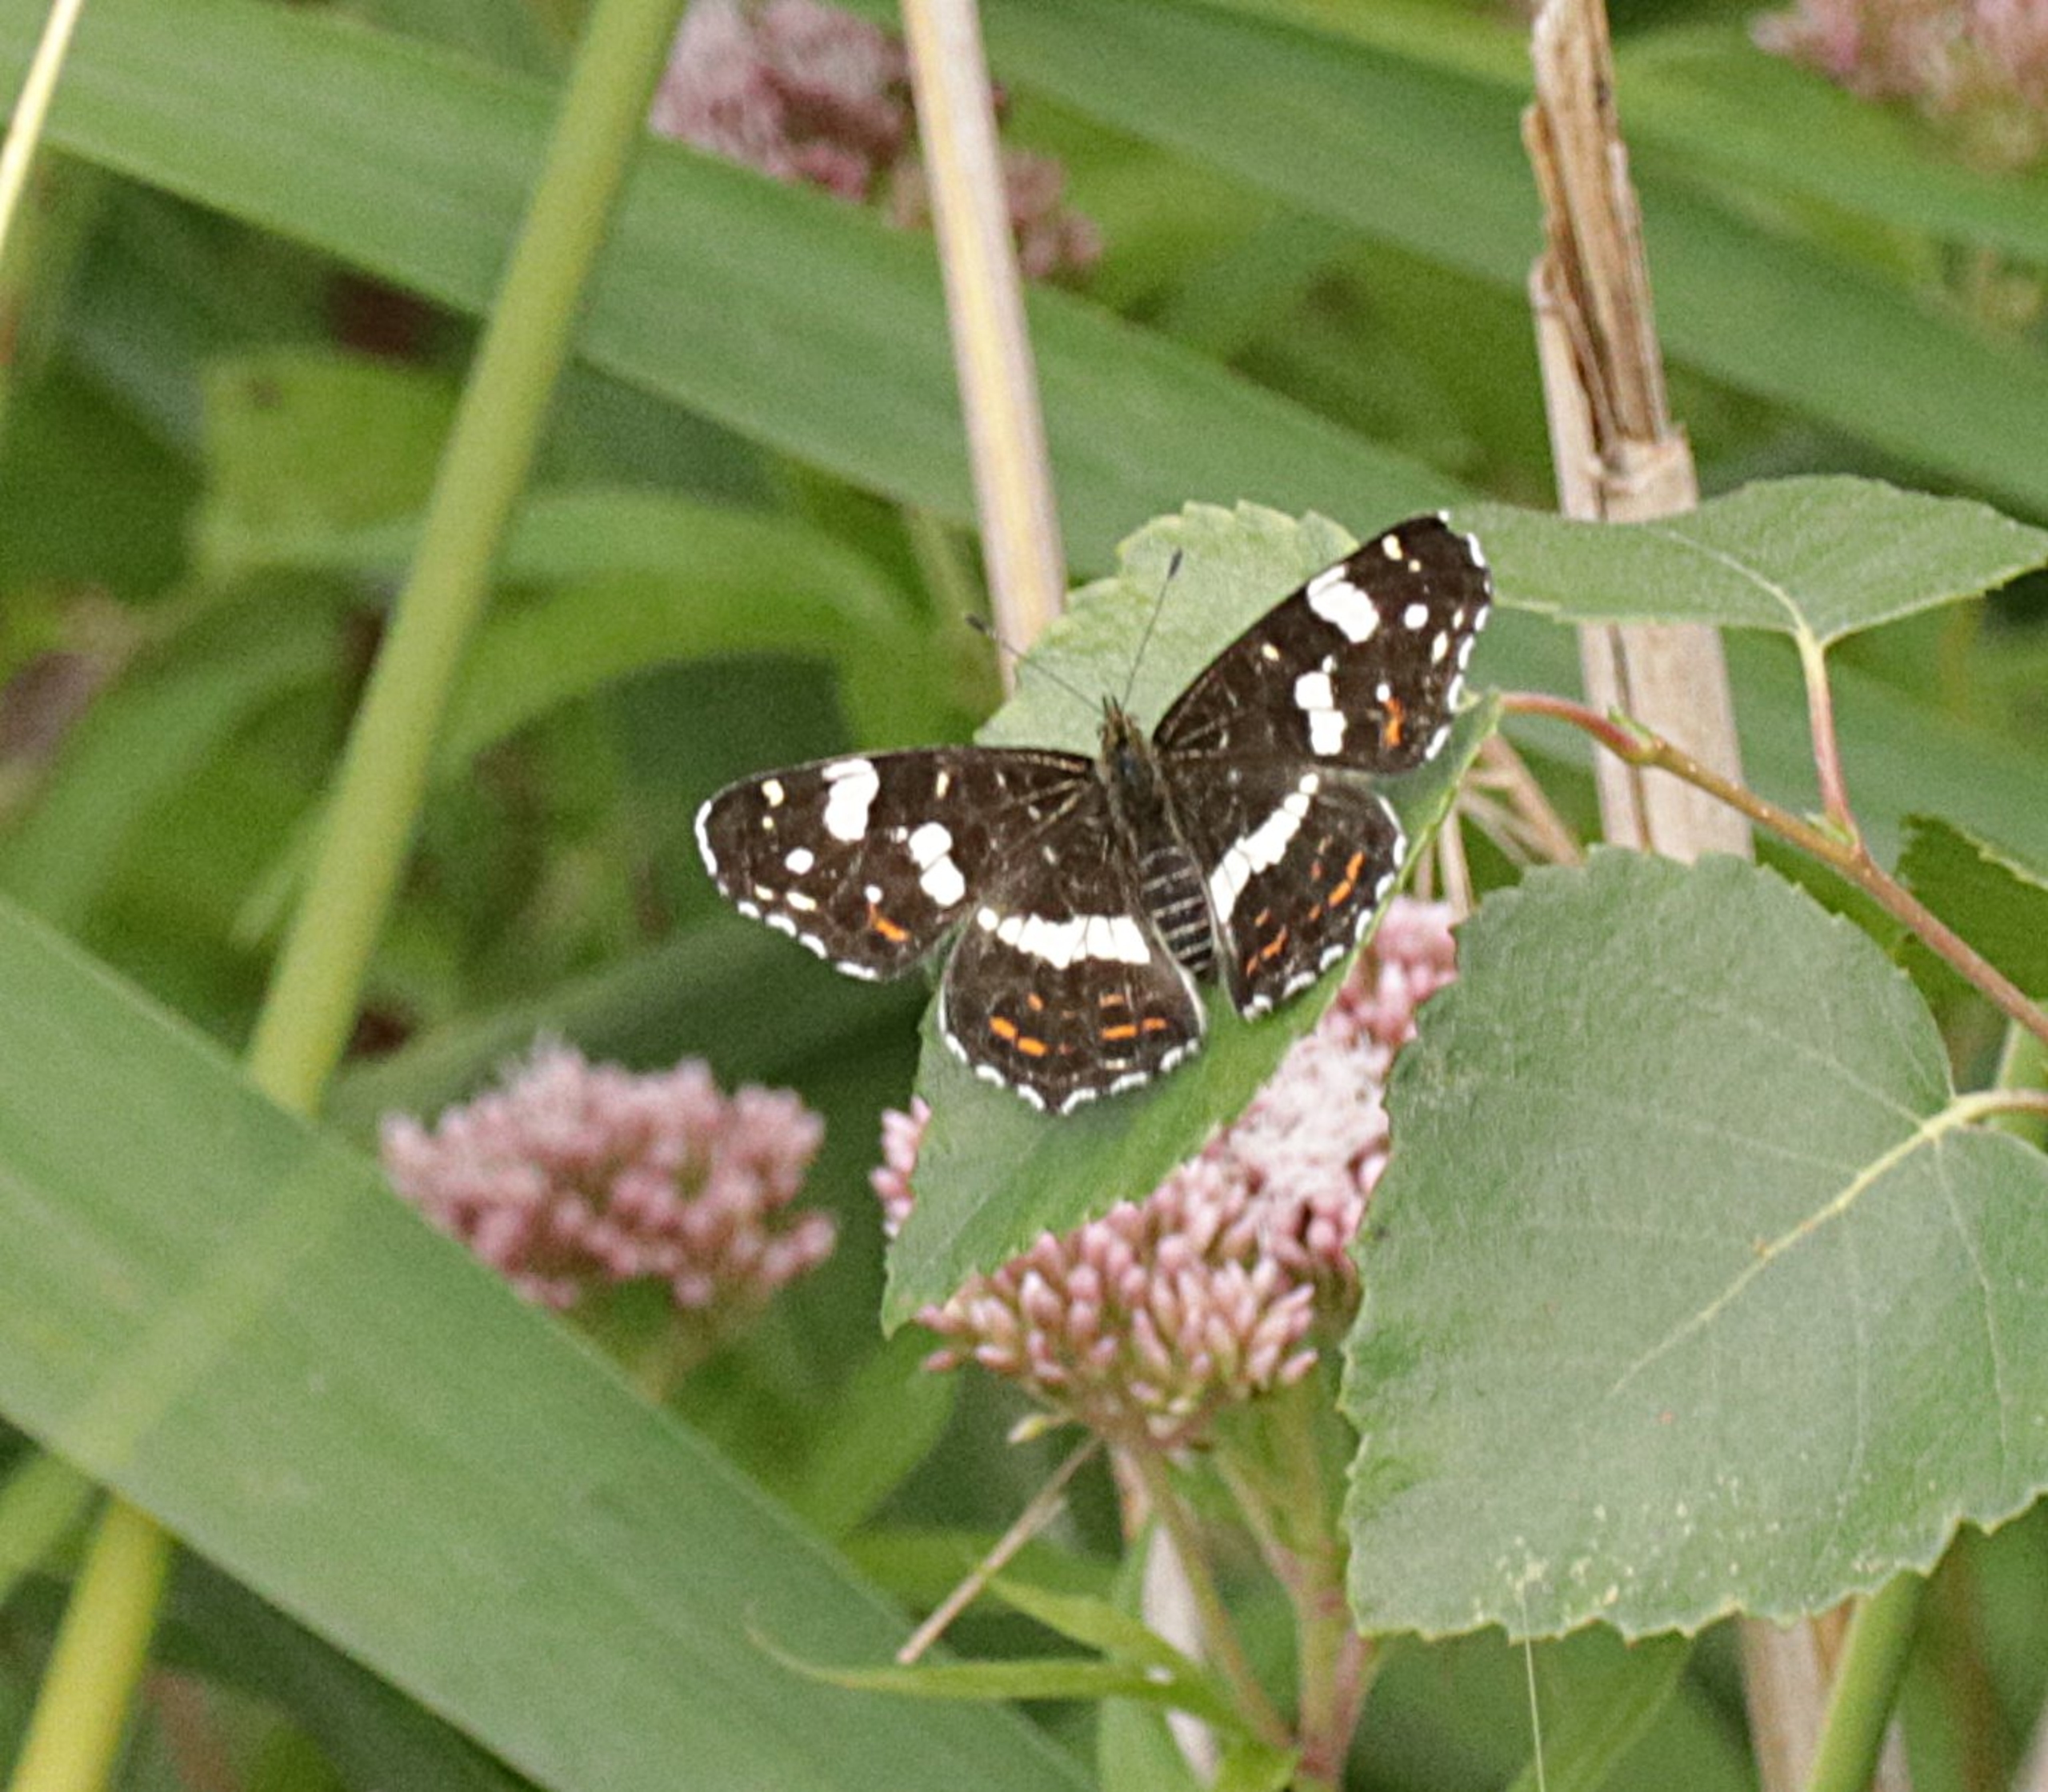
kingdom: Animalia
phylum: Arthropoda
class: Insecta
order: Lepidoptera
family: Nymphalidae
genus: Araschnia
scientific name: Araschnia levana
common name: Nældesommerfugl
